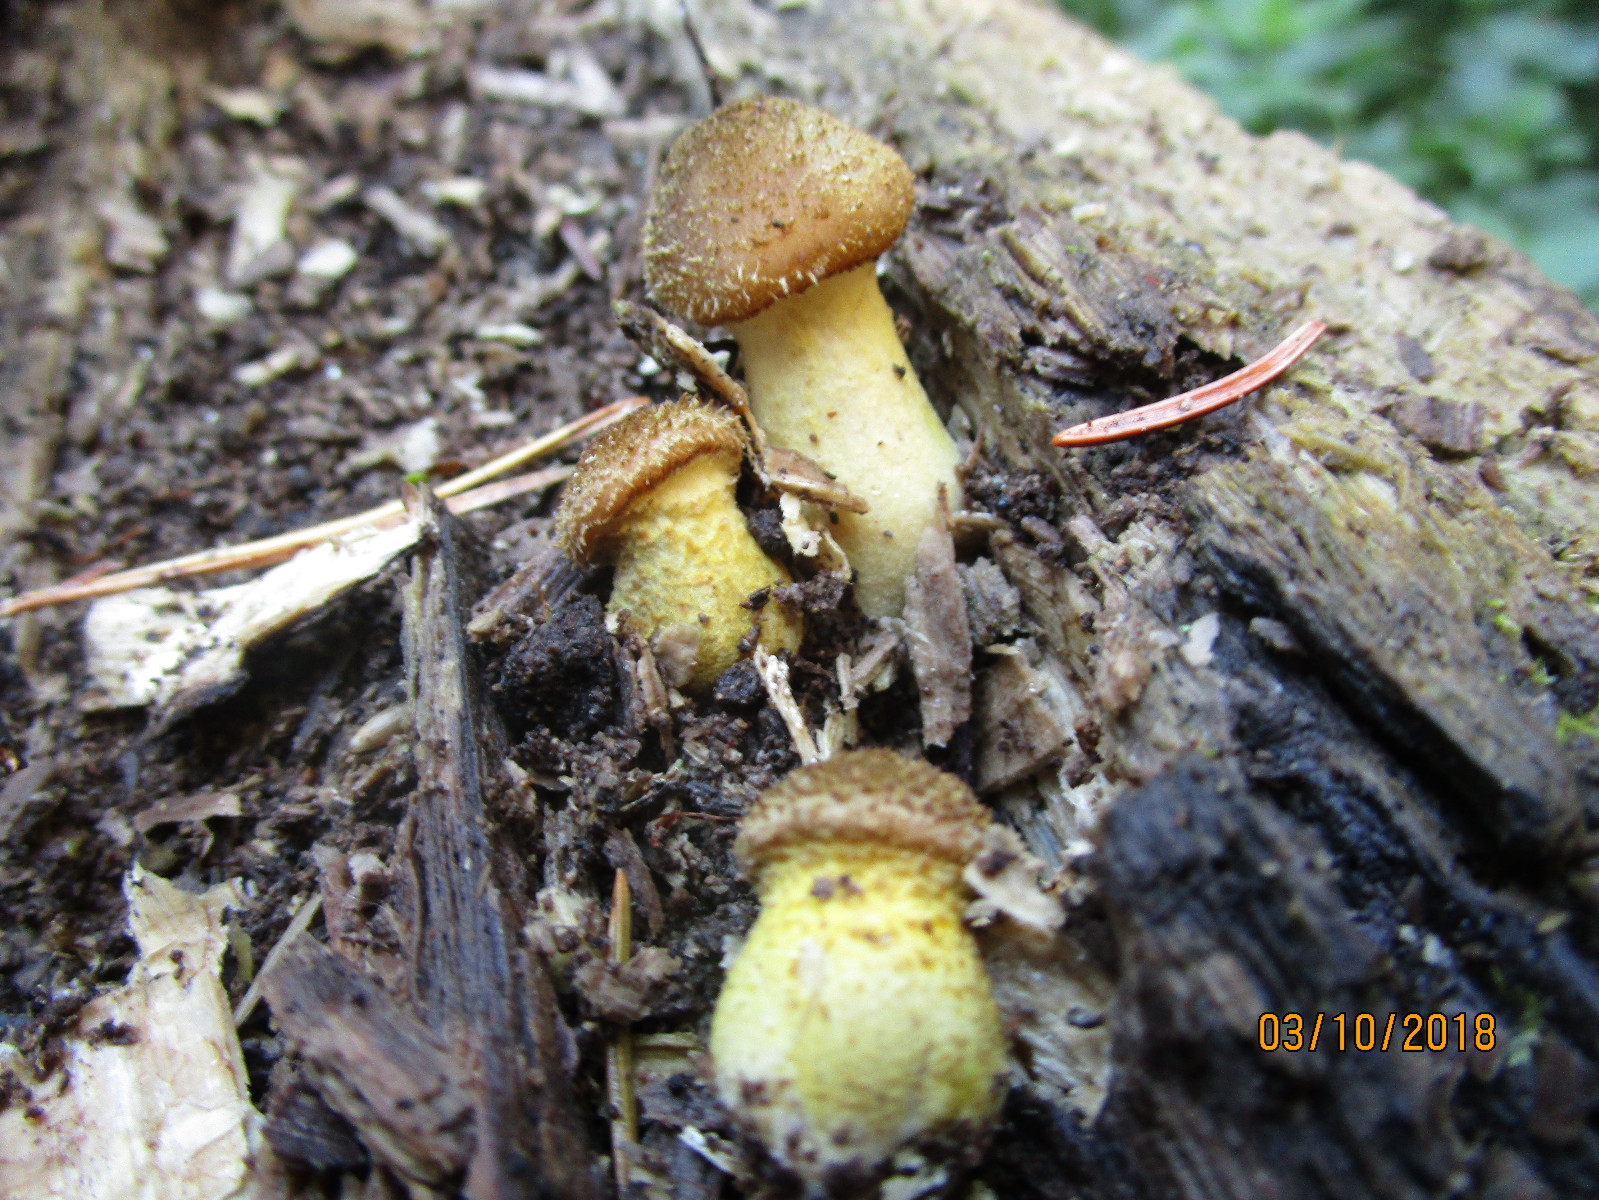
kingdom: Fungi
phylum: Basidiomycota
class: Agaricomycetes
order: Agaricales
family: Physalacriaceae
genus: Armillaria
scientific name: Armillaria lutea
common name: køllestokket honningsvamp
